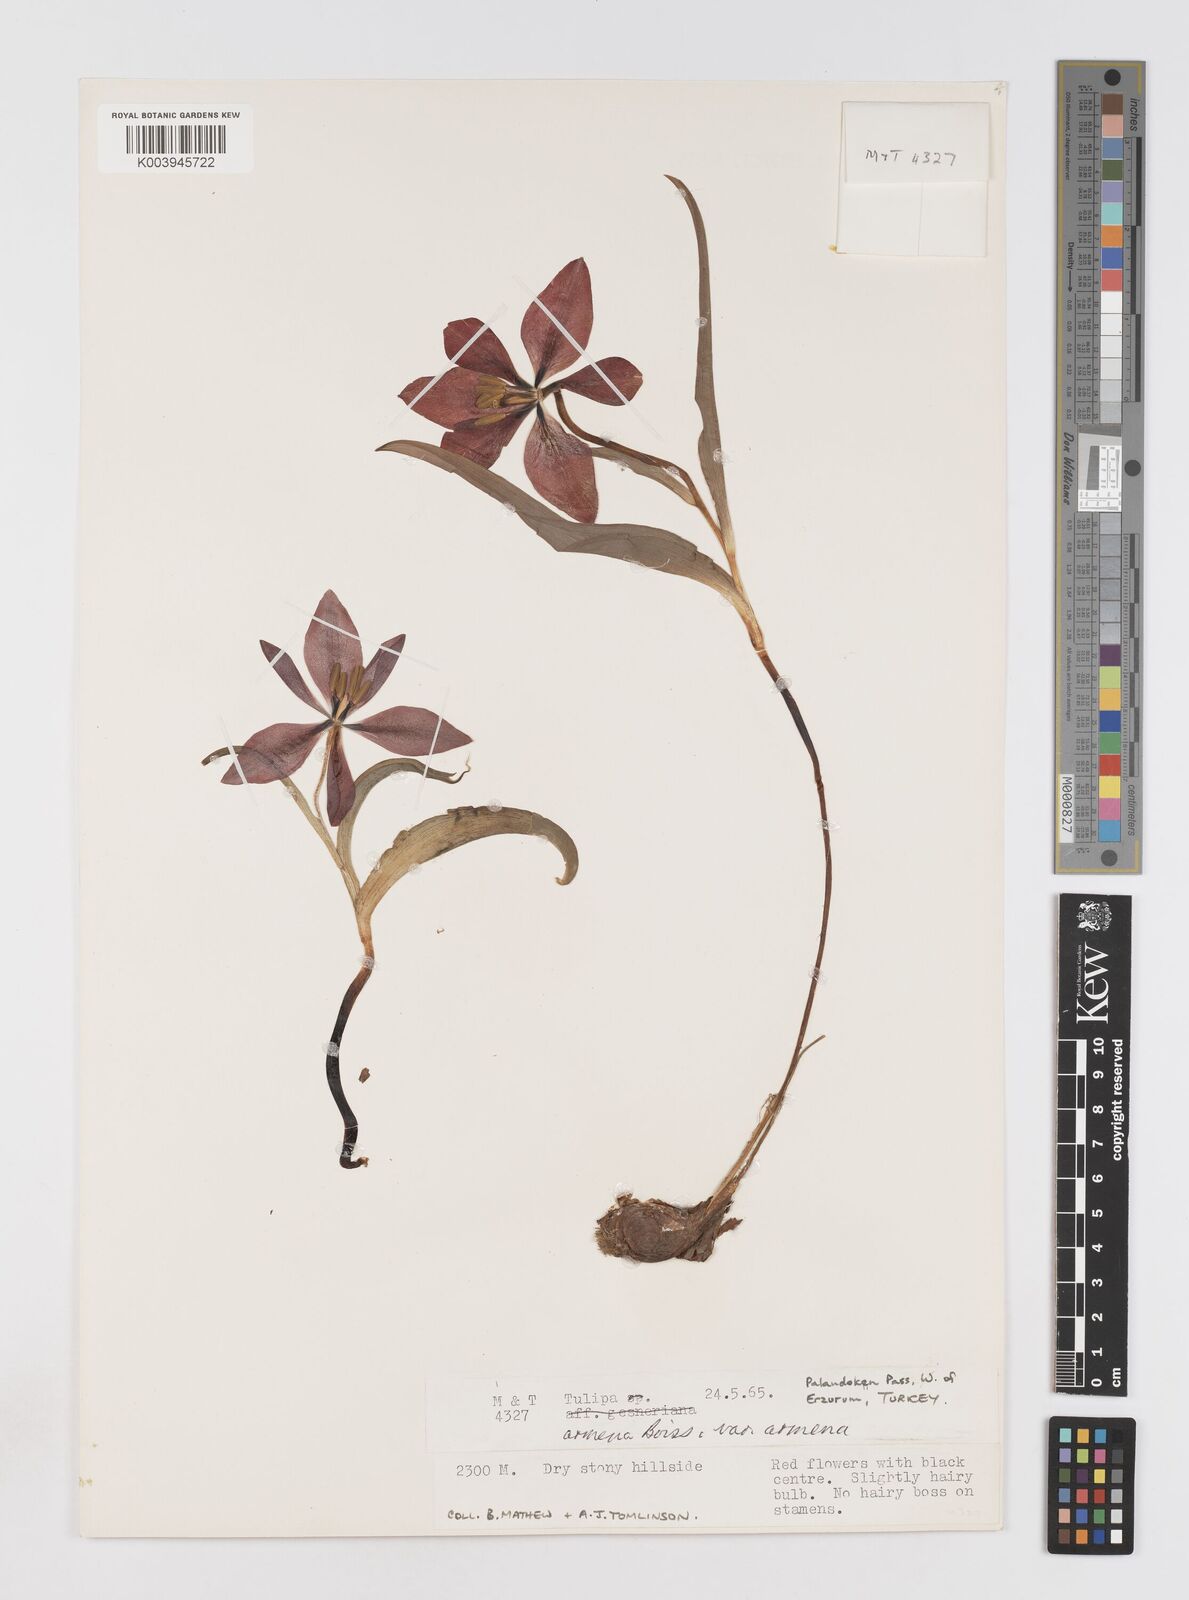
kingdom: Plantae
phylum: Tracheophyta
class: Liliopsida
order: Liliales
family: Liliaceae
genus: Tulipa
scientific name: Tulipa armena
